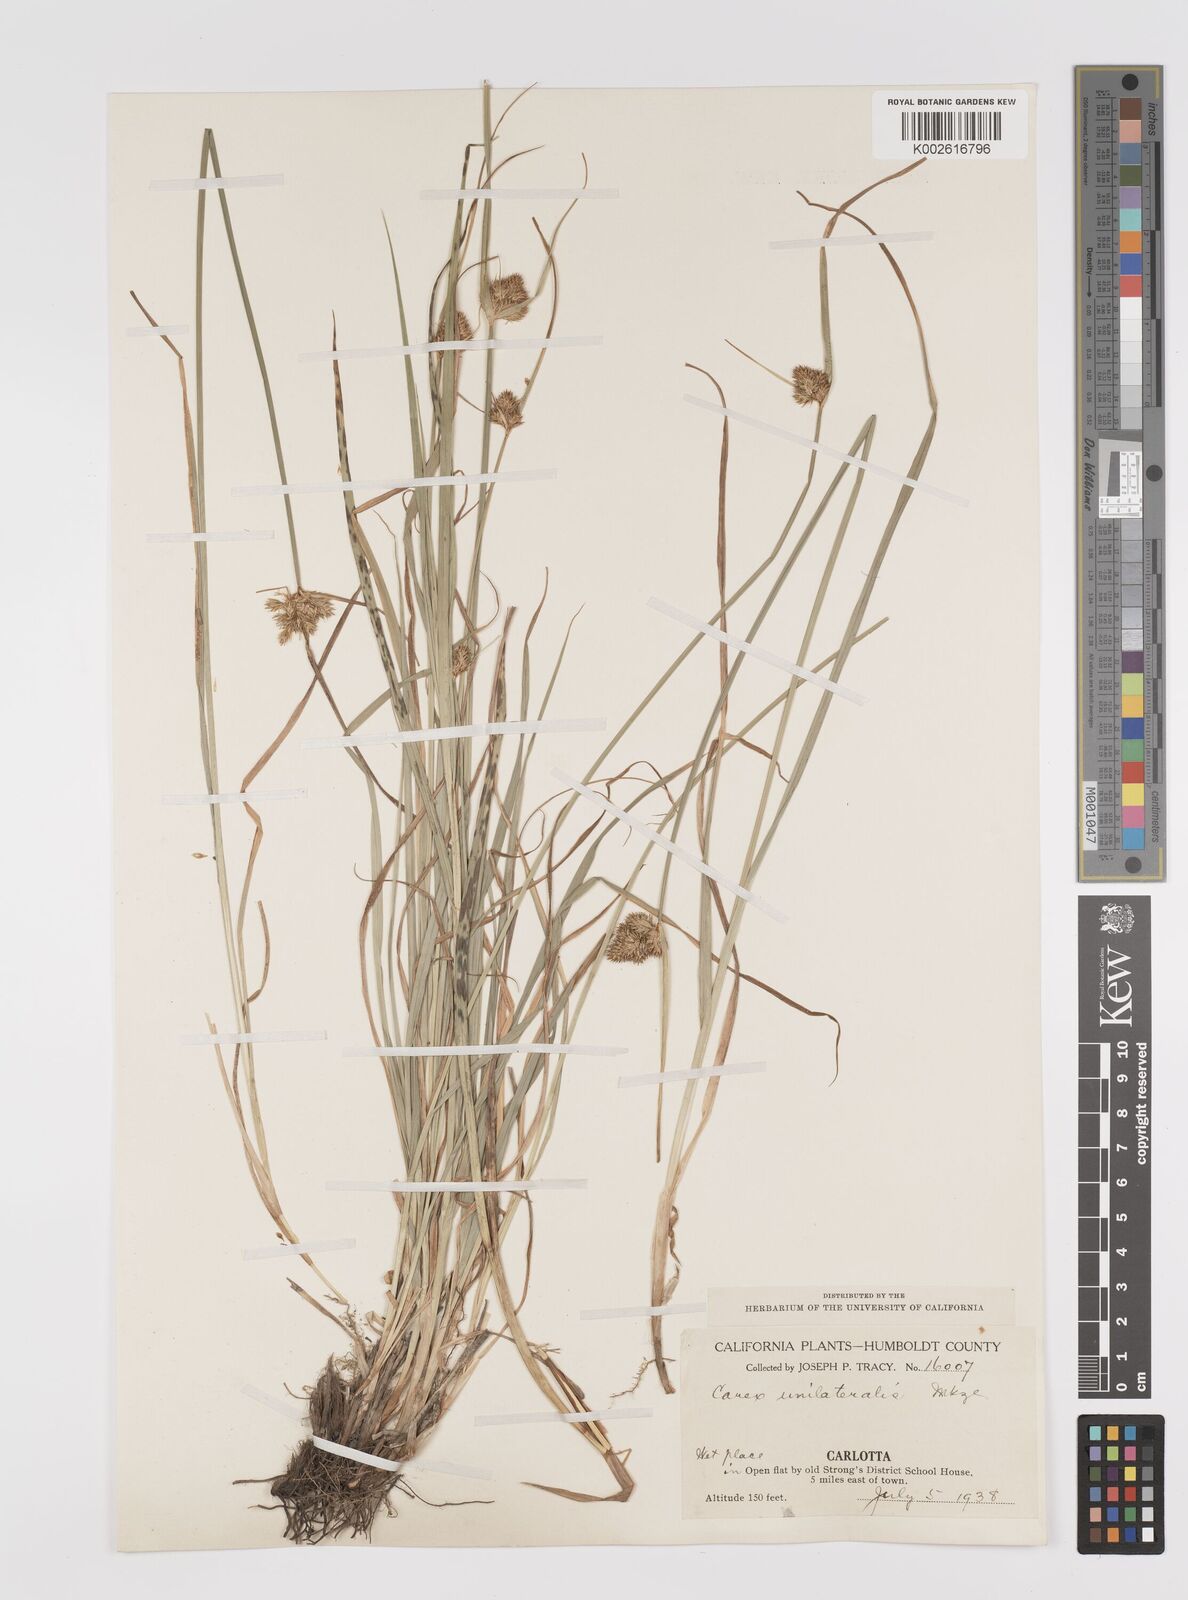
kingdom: Plantae
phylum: Tracheophyta
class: Liliopsida
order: Poales
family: Cyperaceae
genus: Carex
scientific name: Carex unilateralis
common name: Lateral sedge
